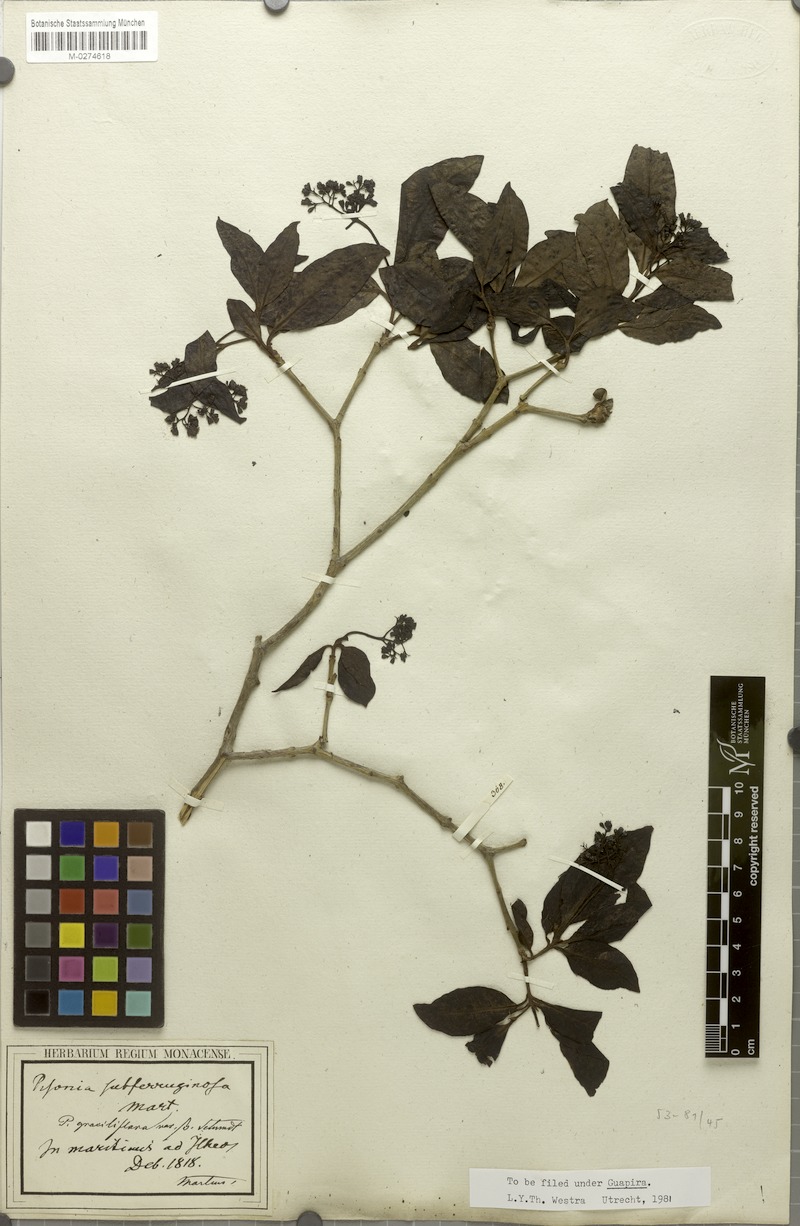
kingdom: Plantae
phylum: Tracheophyta
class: Magnoliopsida
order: Caryophyllales
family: Nyctaginaceae
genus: Guapira
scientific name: Guapira graciliflora
